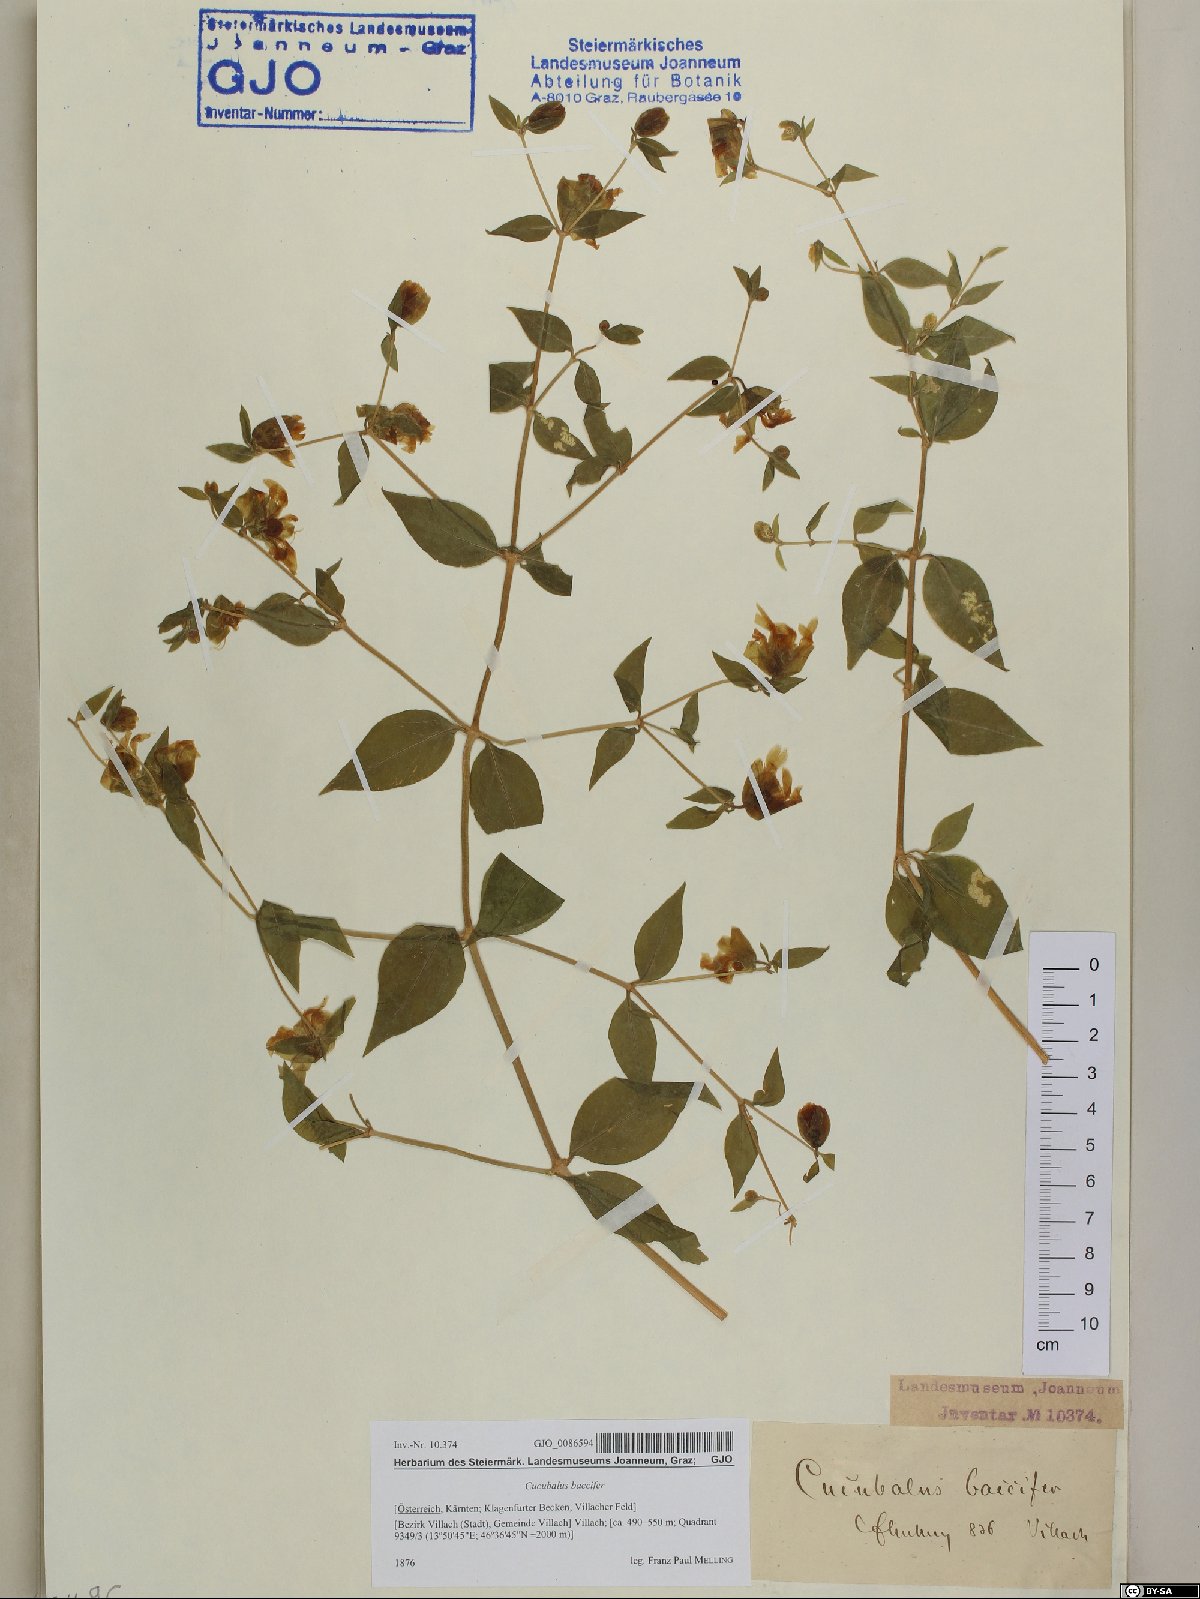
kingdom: Plantae
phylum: Tracheophyta
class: Magnoliopsida
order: Caryophyllales
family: Caryophyllaceae
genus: Silene
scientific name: Silene baccifera
